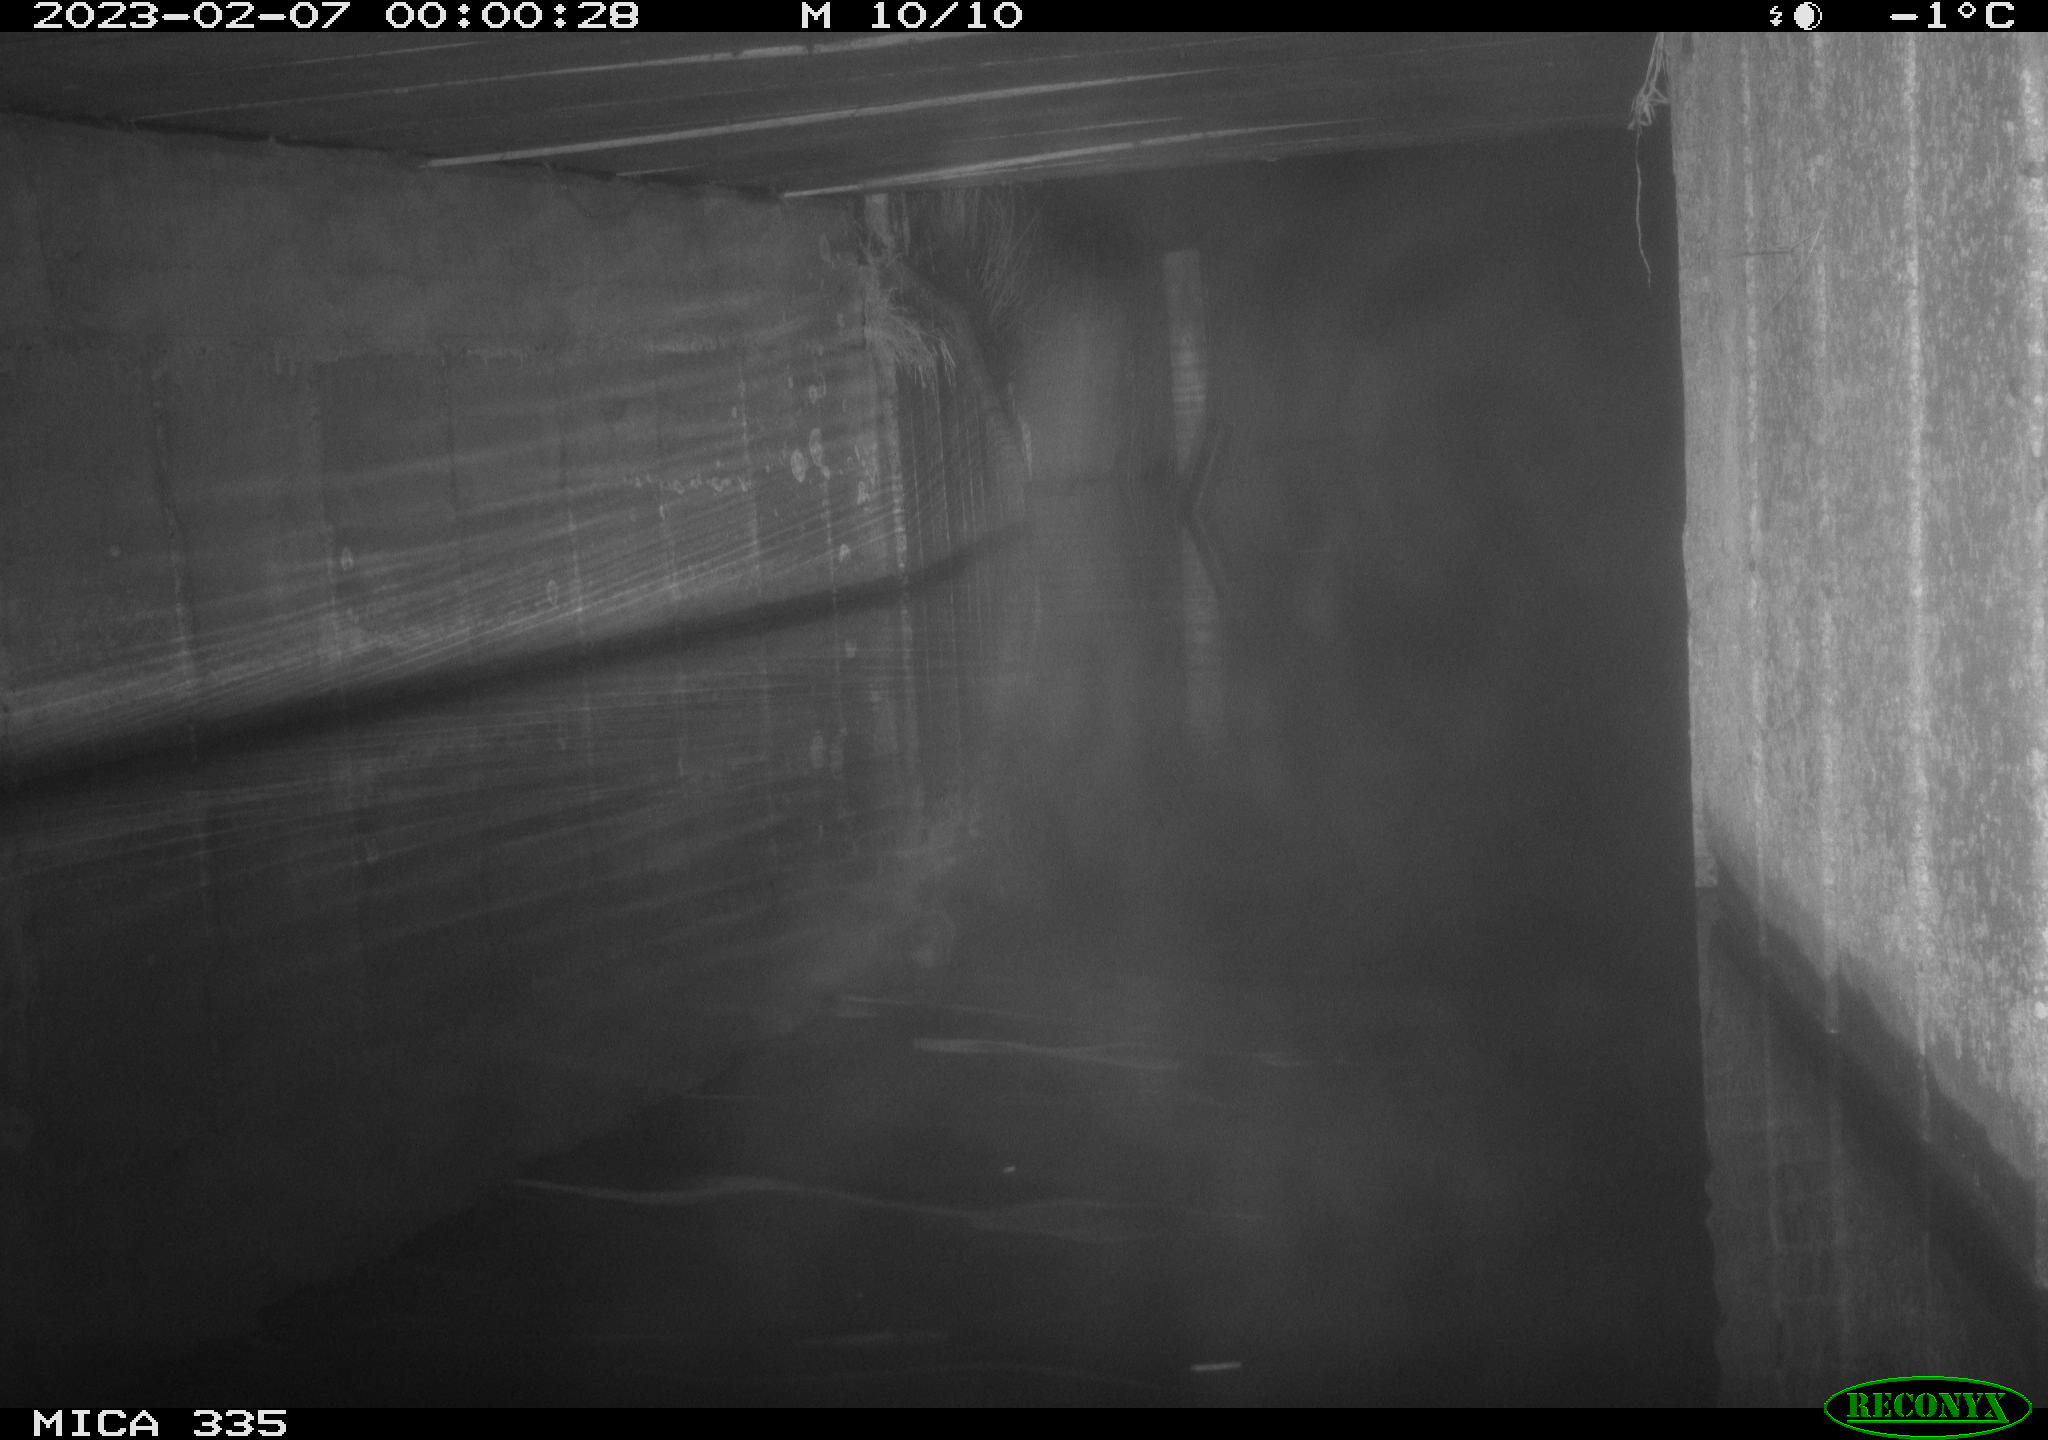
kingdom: Animalia
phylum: Chordata
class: Mammalia
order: Rodentia
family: Muridae
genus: Rattus
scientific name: Rattus norvegicus
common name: Brown rat
